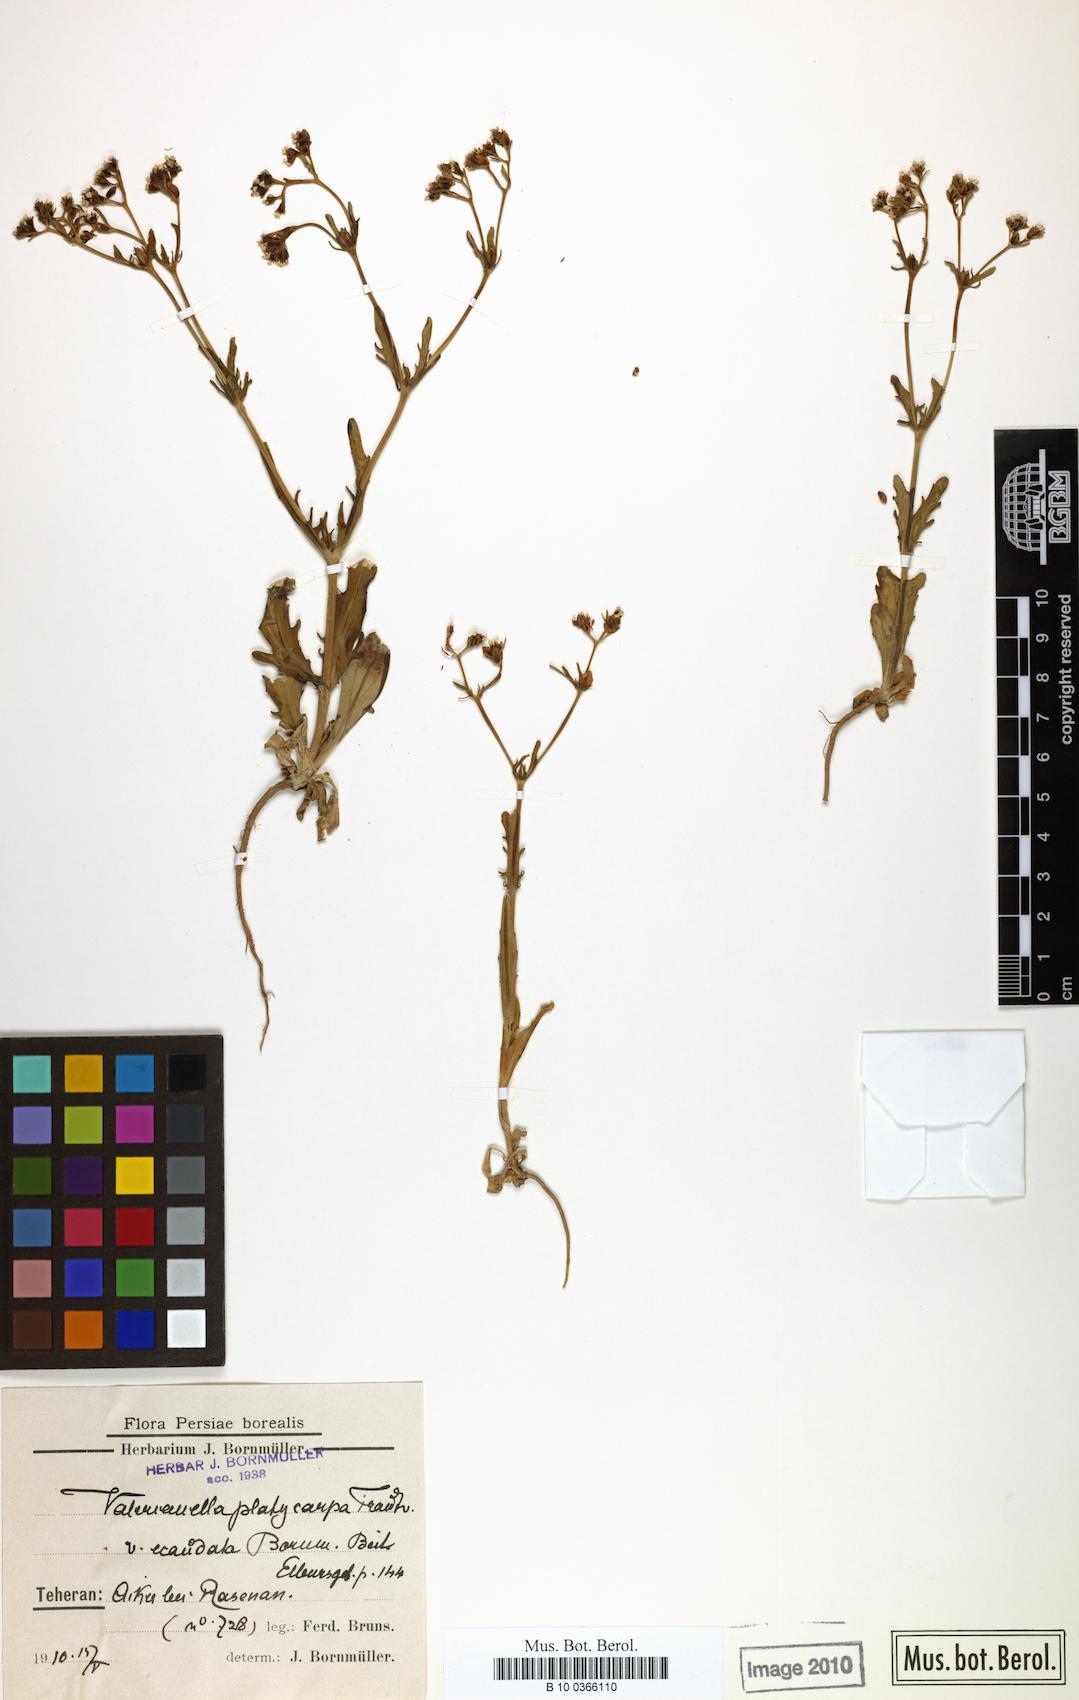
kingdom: Plantae
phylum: Tracheophyta
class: Magnoliopsida
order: Dipsacales
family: Caprifoliaceae
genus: Valerianella
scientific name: Valerianella platycarpa
